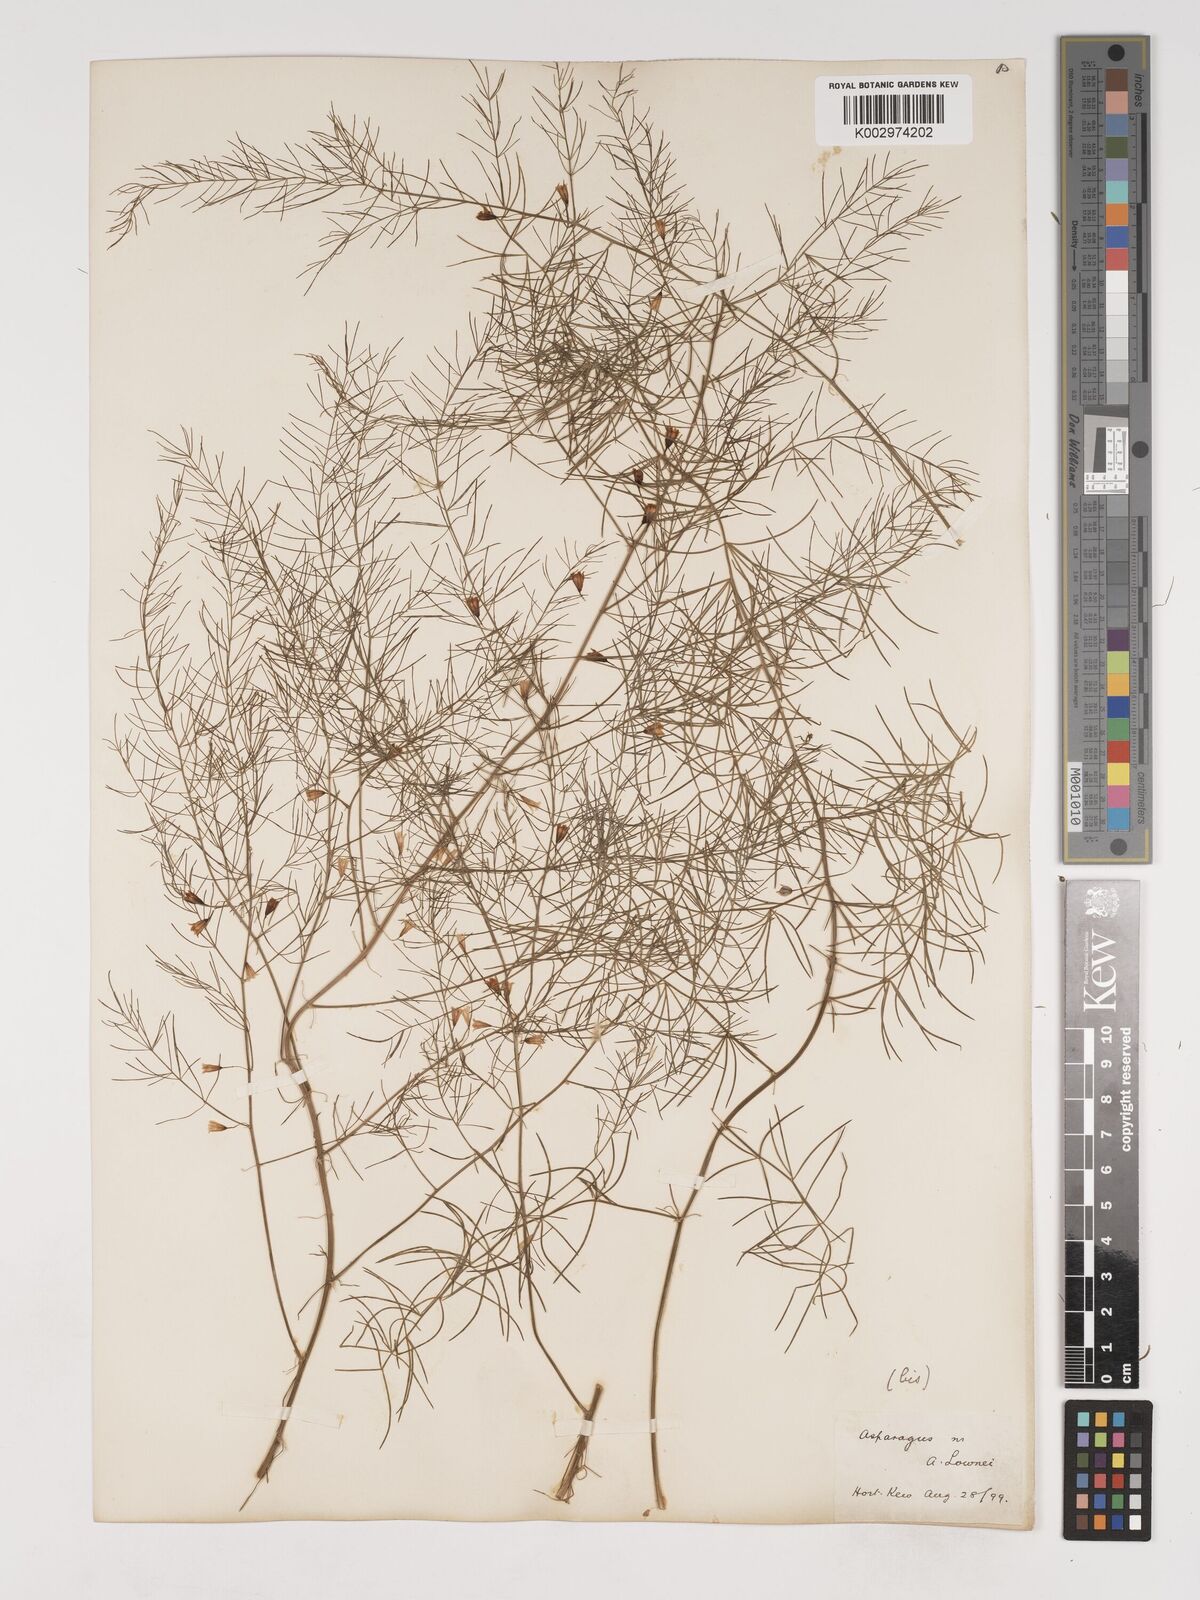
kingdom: Plantae
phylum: Tracheophyta
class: Liliopsida
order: Asparagales
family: Asparagaceae
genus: Asparagus
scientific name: Asparagus palaestinus
